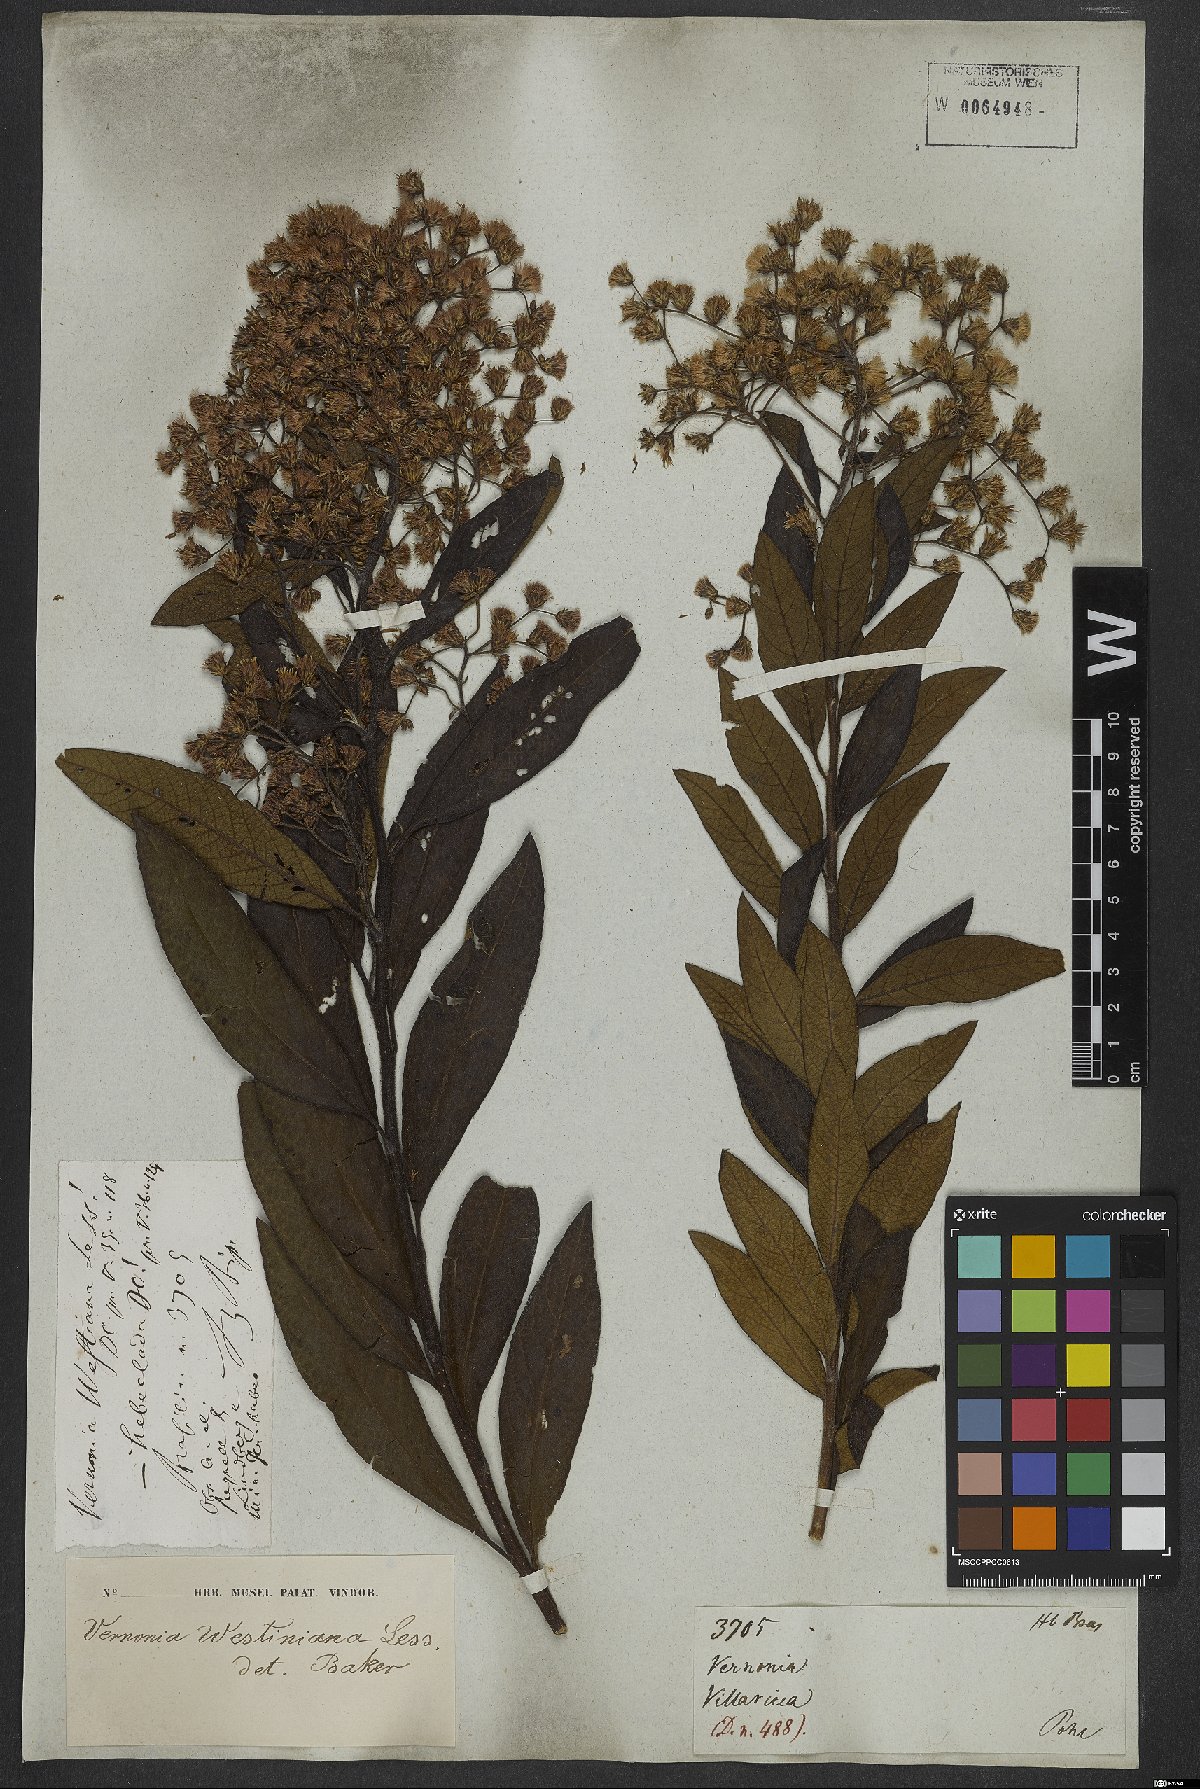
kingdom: Plantae
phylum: Tracheophyta
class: Magnoliopsida
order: Asterales
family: Asteraceae
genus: Vernonanthura
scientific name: Vernonanthura westiniana
